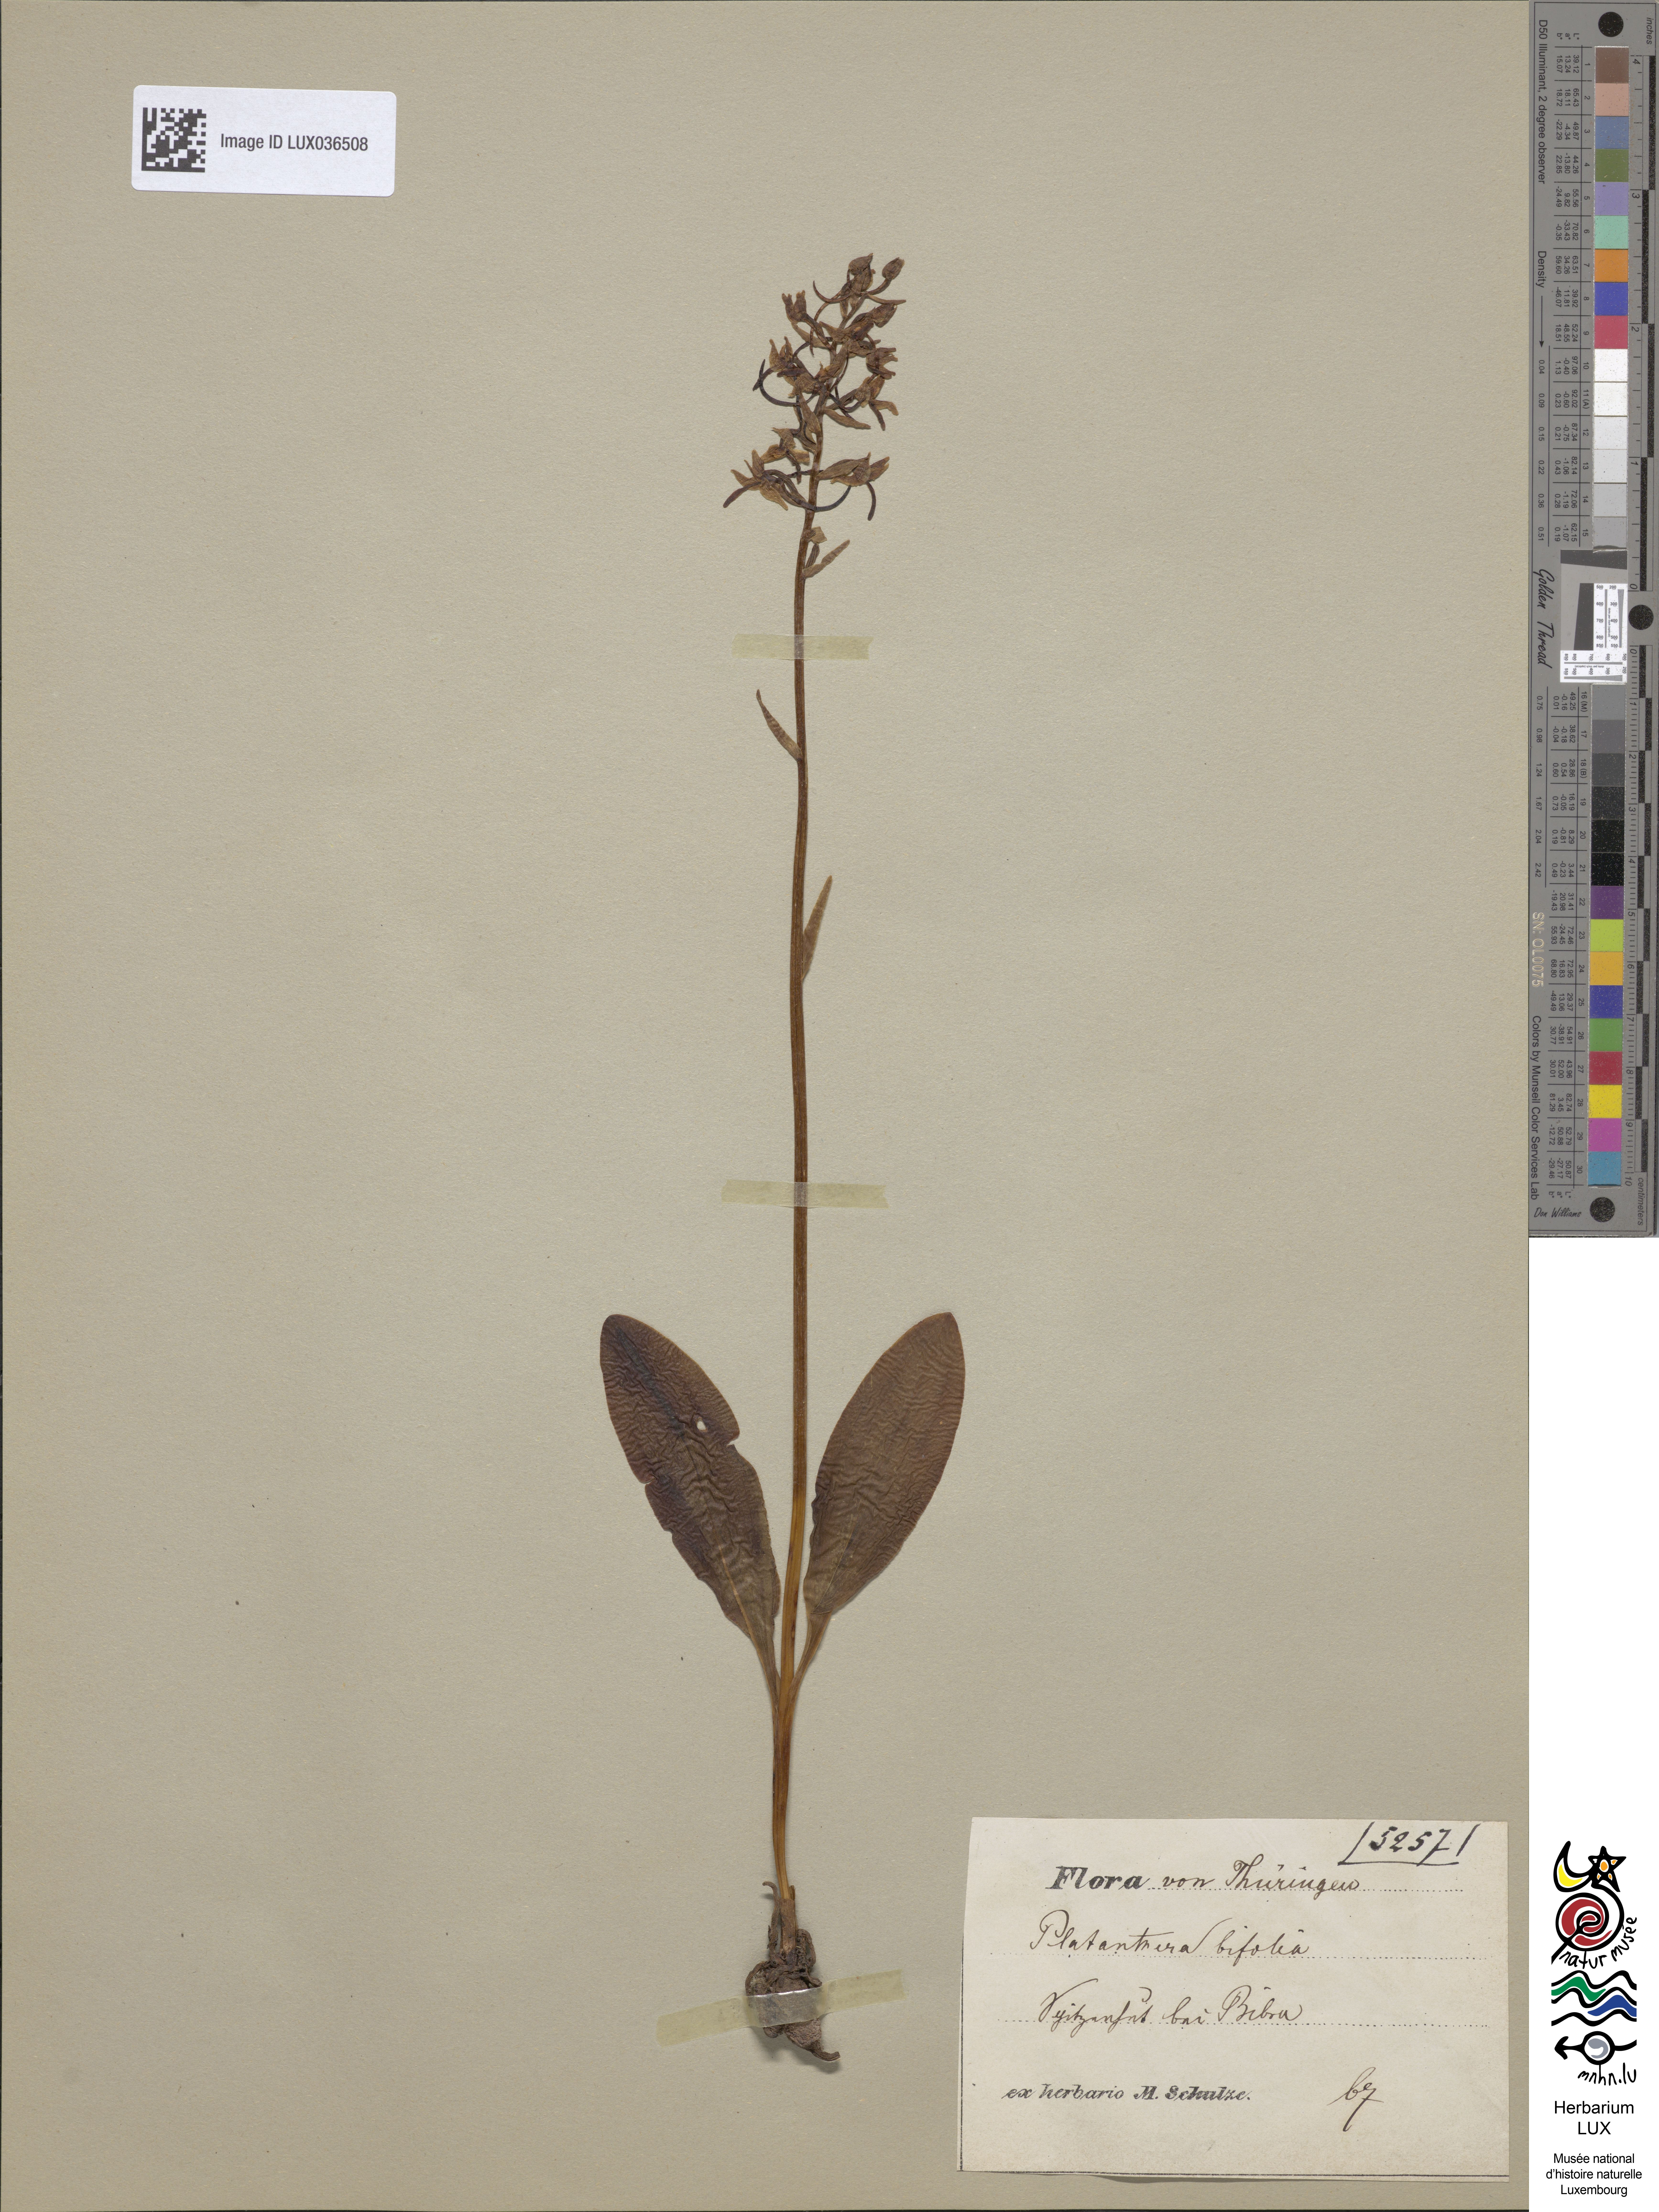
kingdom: Plantae
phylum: Tracheophyta
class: Liliopsida
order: Asparagales
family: Orchidaceae
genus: Platanthera
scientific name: Platanthera bifolia
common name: Lesser butterfly-orchid
